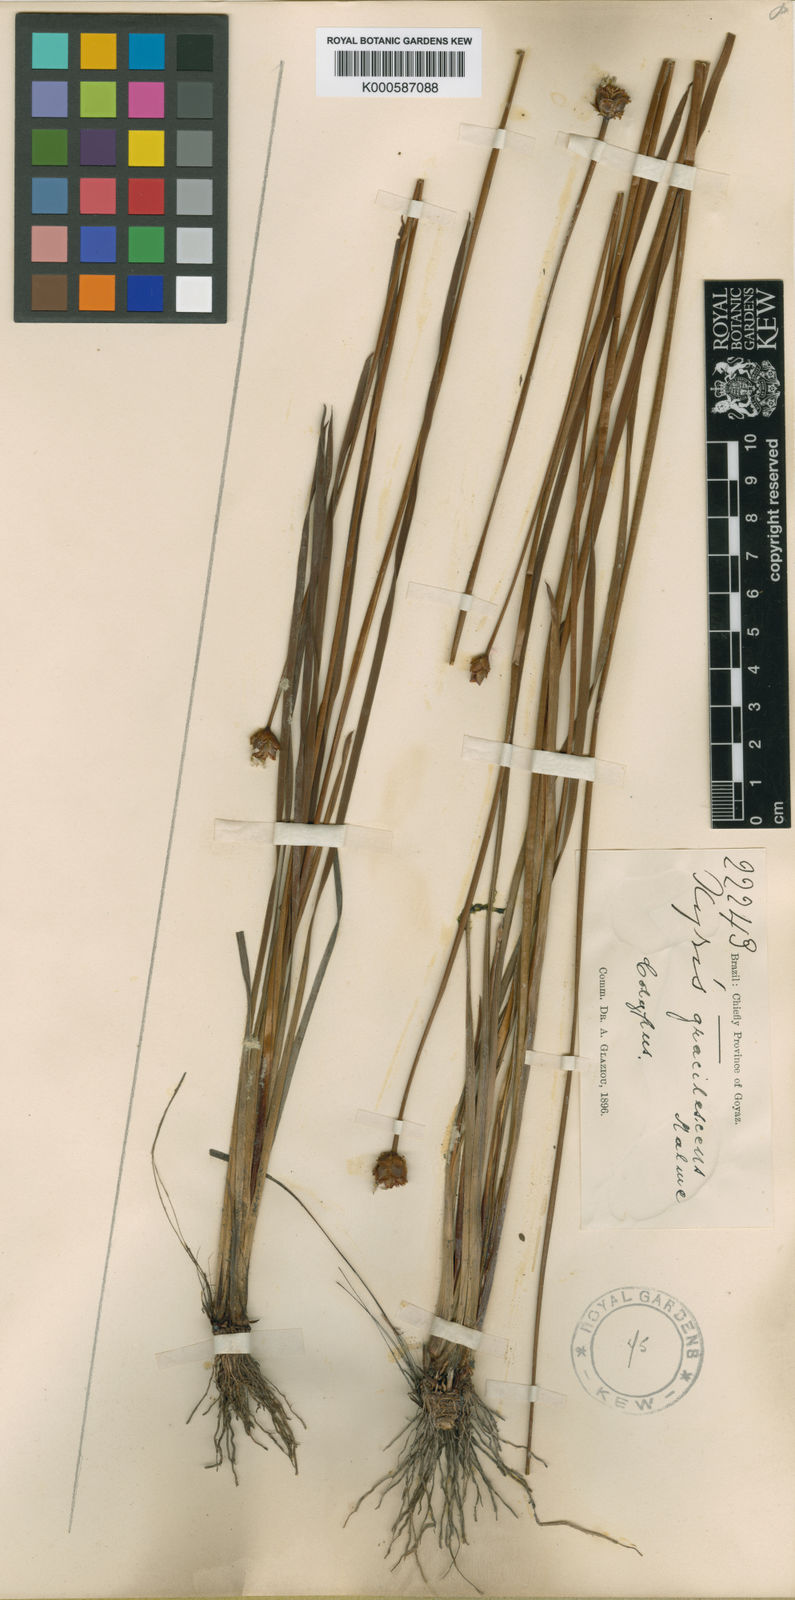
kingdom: Plantae
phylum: Tracheophyta
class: Liliopsida
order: Poales
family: Xyridaceae
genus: Xyris
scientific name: Xyris schizachne
